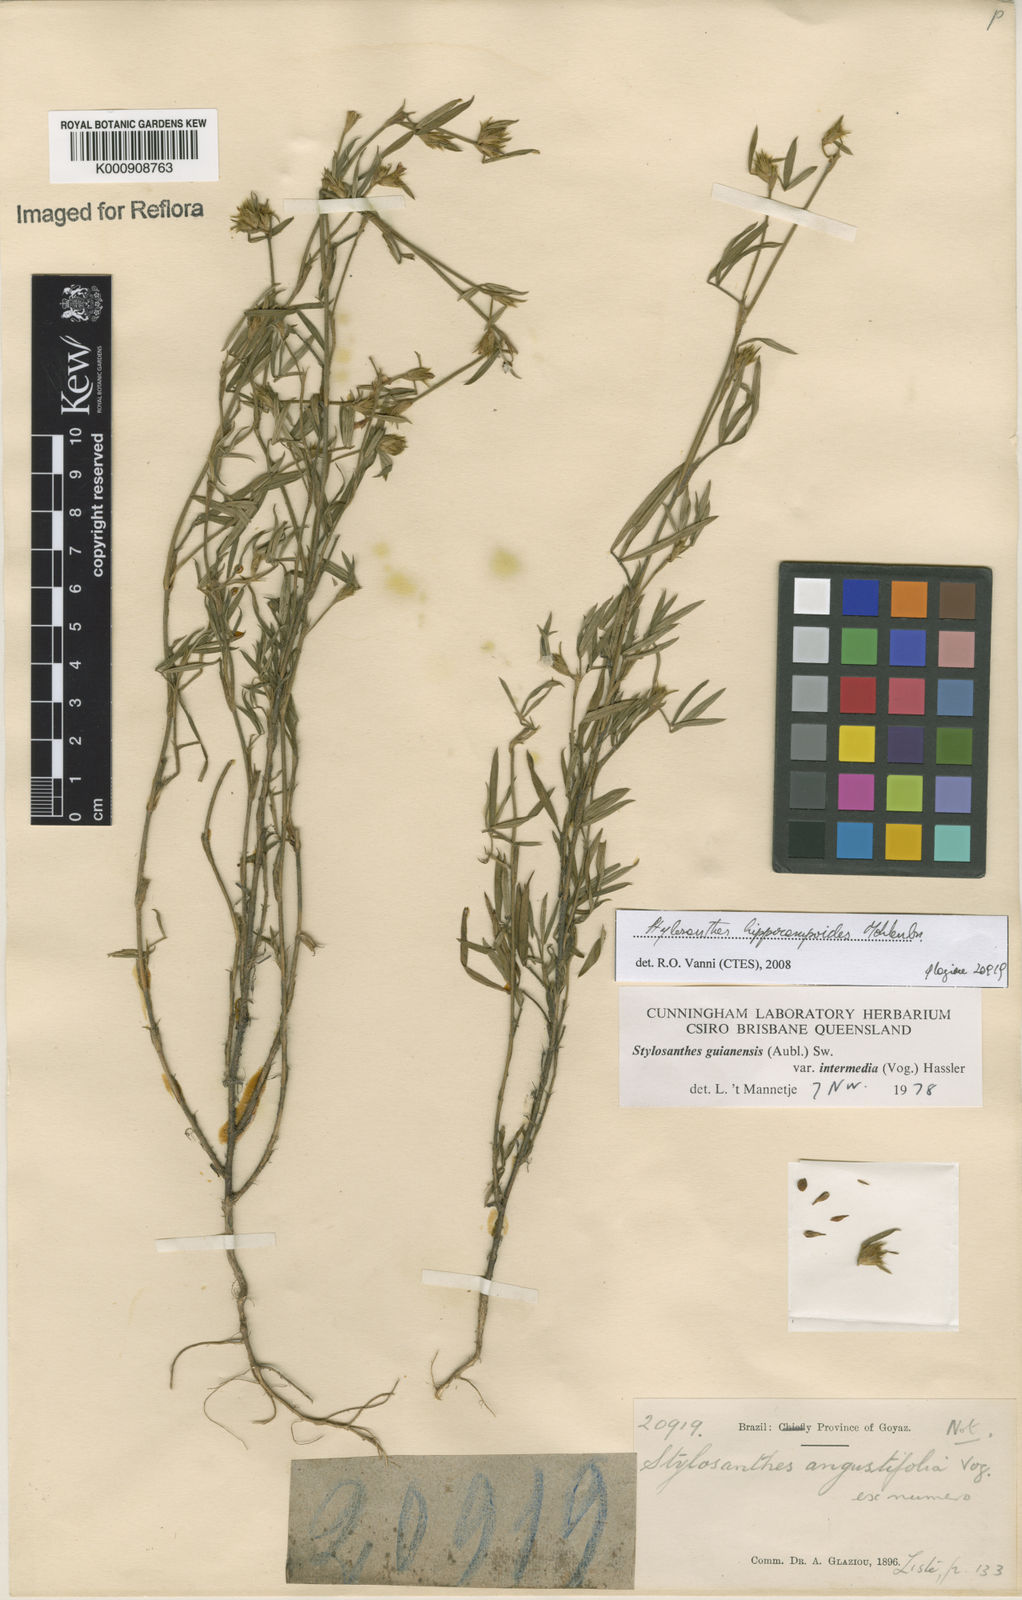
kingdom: Plantae
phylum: Tracheophyta
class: Magnoliopsida
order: Fabales
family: Fabaceae
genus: Stylosanthes
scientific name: Stylosanthes hippocampoides
